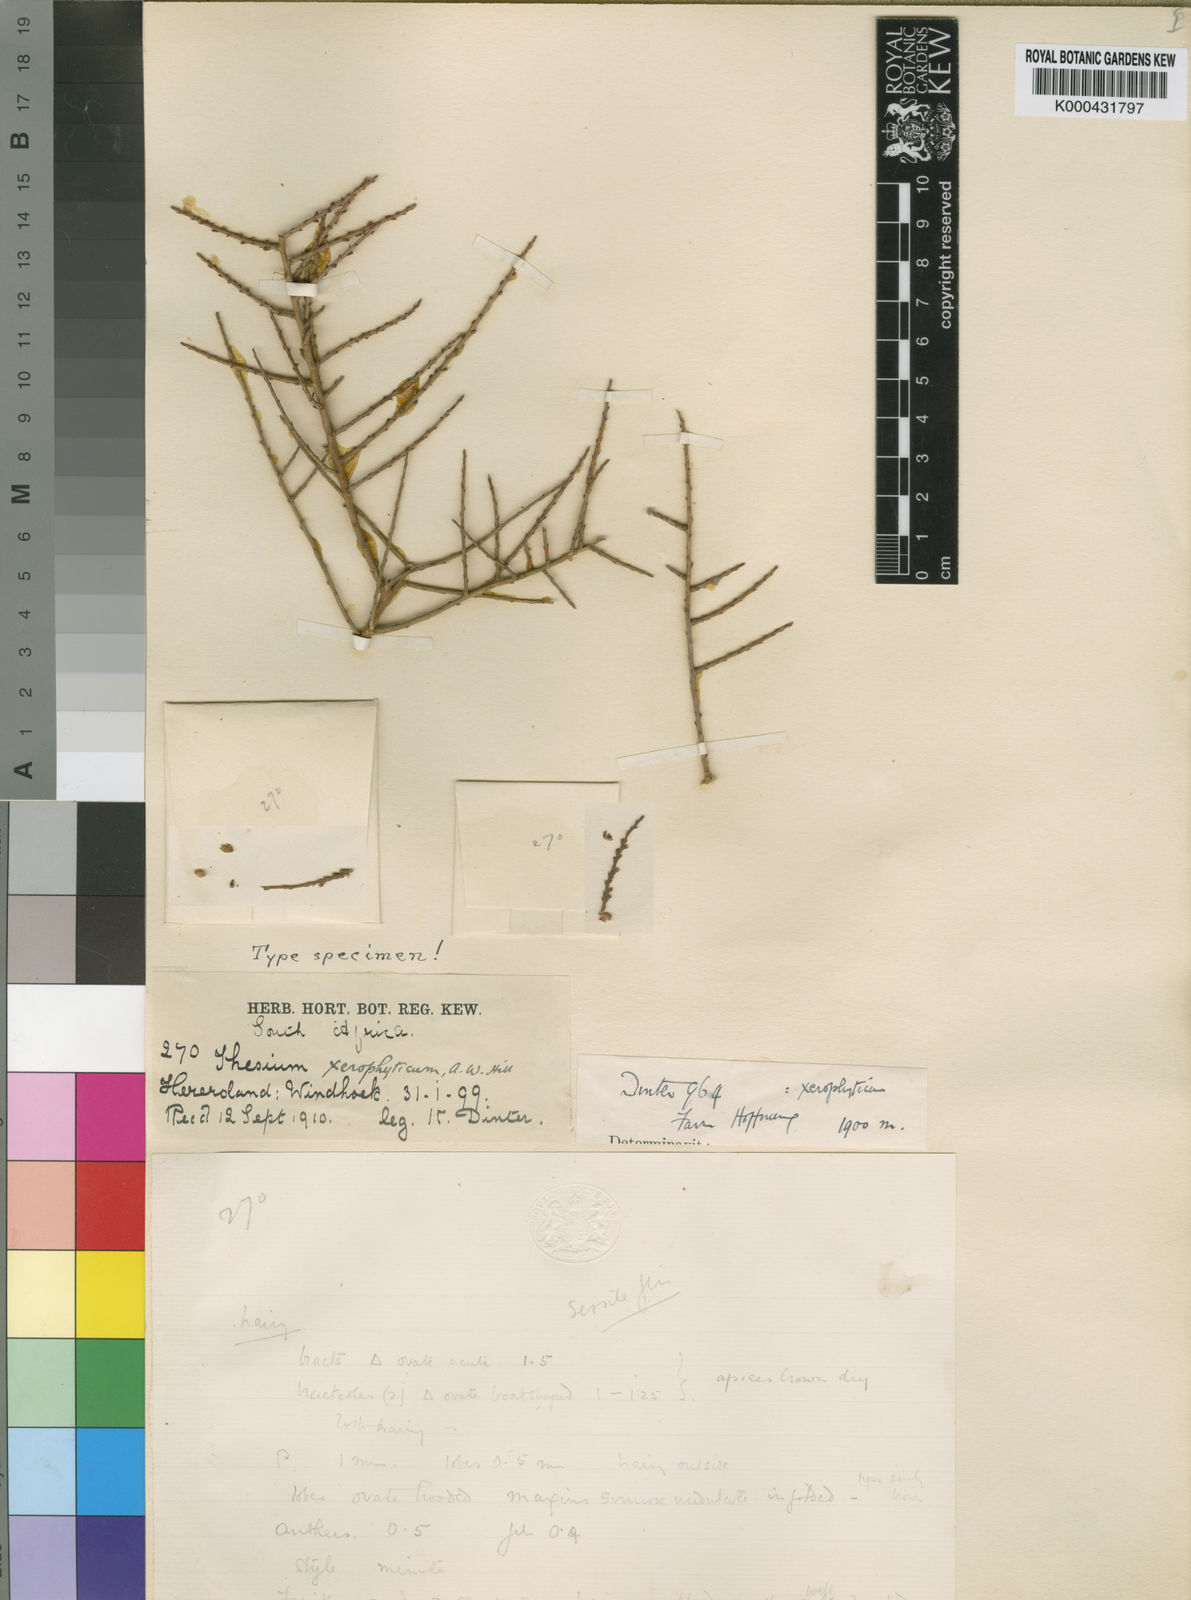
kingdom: Plantae
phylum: Tracheophyta
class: Magnoliopsida
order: Santalales
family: Thesiaceae
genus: Thesium
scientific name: Thesium xerophyticum
